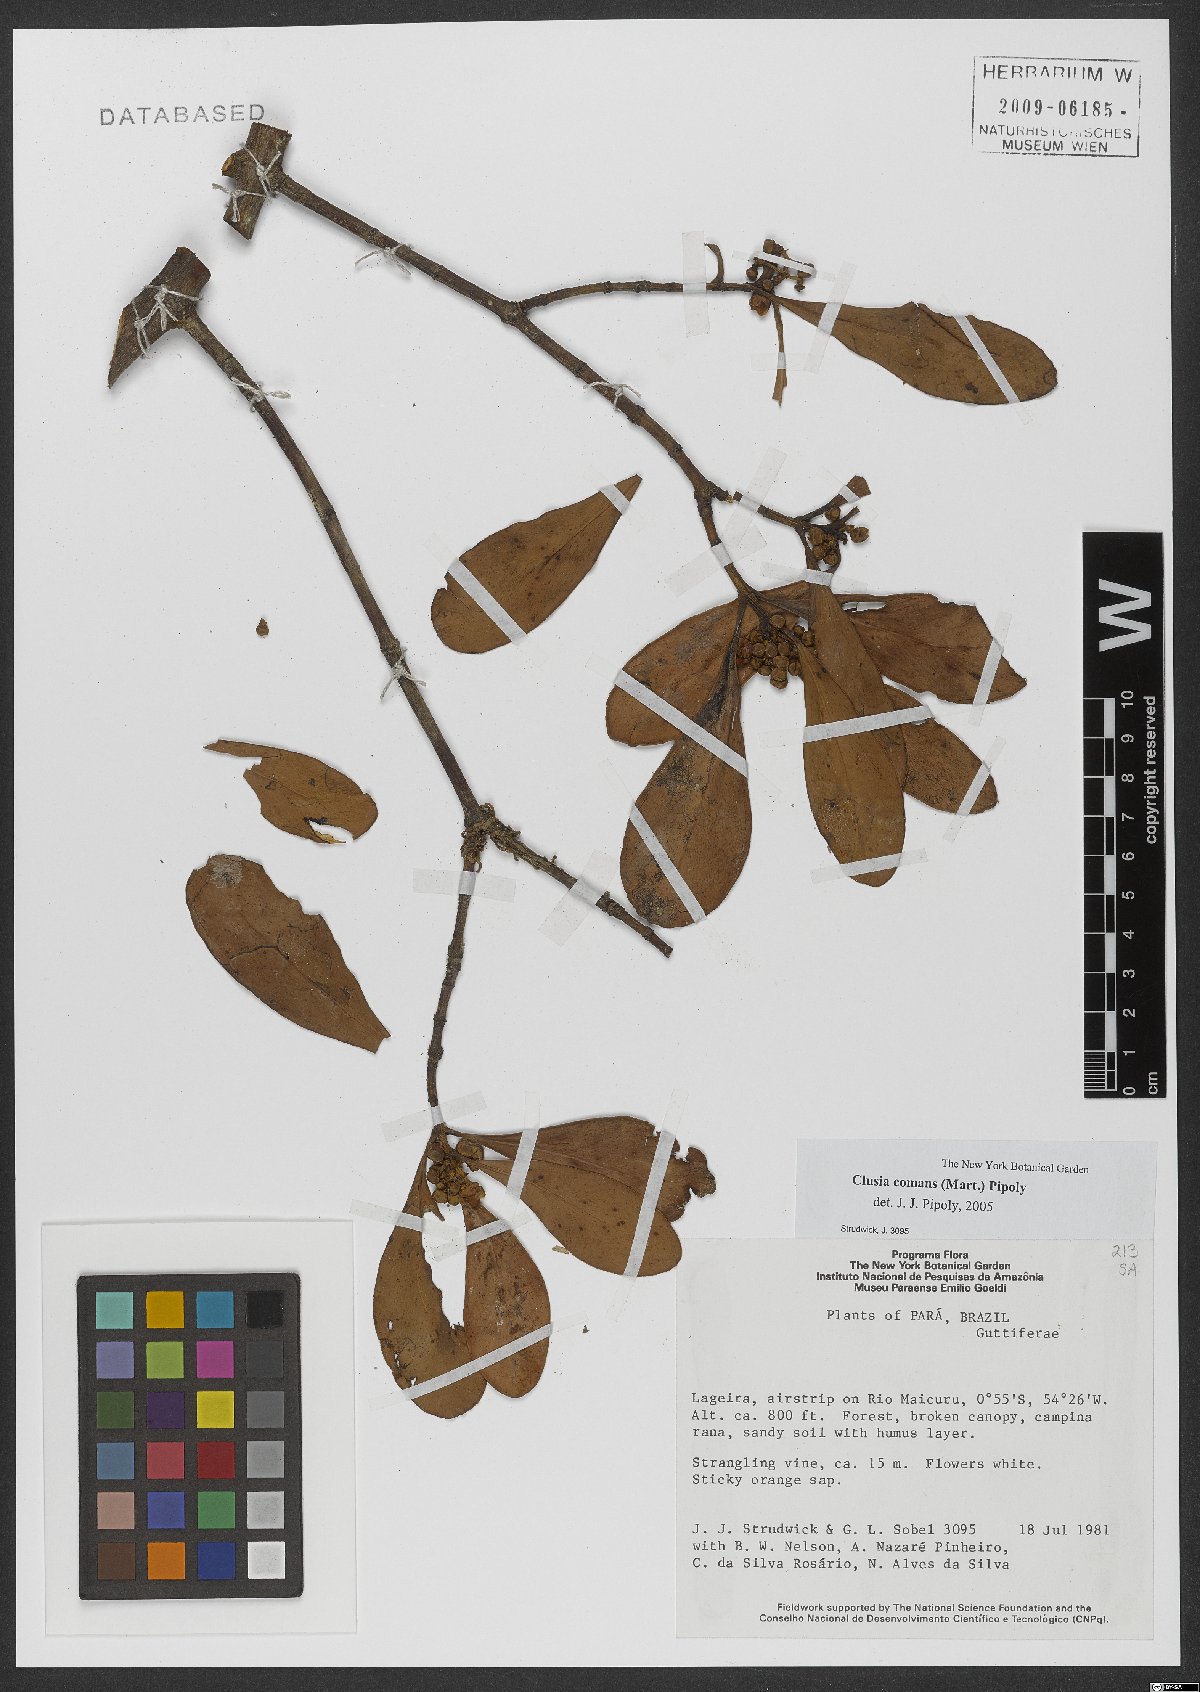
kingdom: Plantae
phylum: Tracheophyta
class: Magnoliopsida
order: Malpighiales
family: Clusiaceae
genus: Clusia
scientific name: Clusia comans
